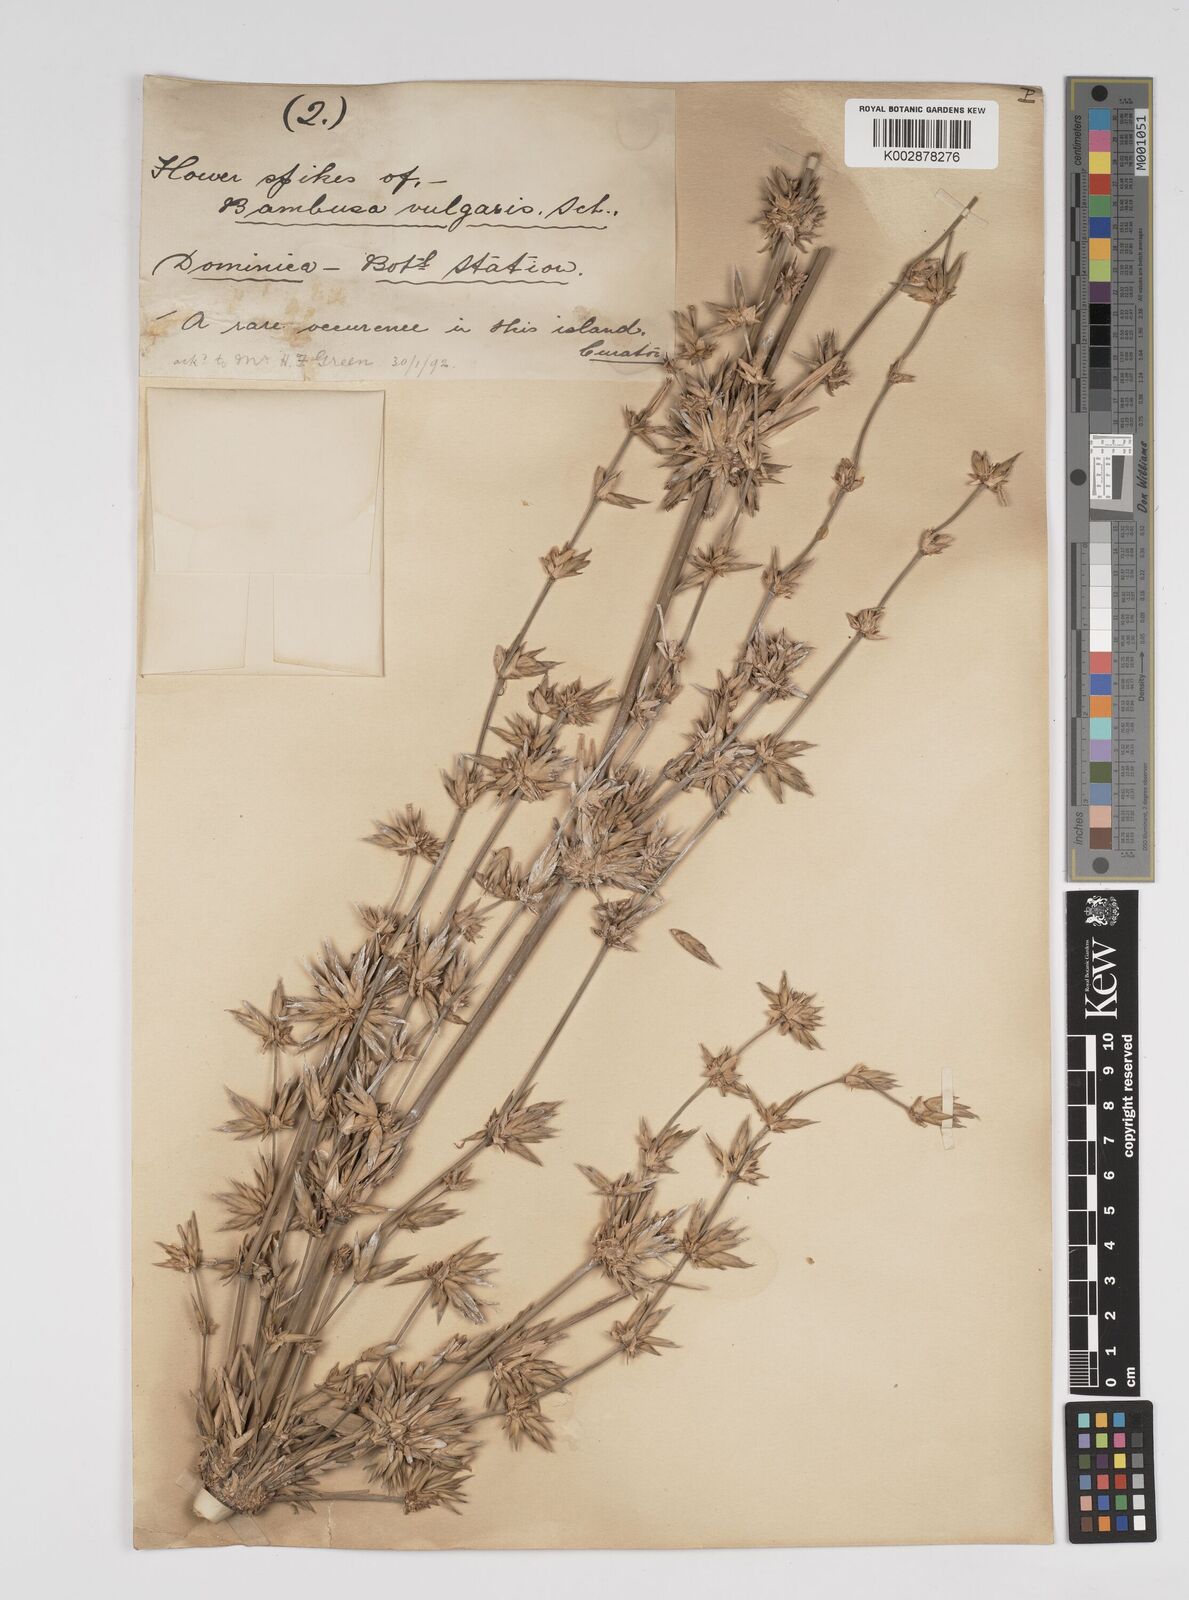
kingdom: Plantae
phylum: Tracheophyta
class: Liliopsida
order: Poales
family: Poaceae
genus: Bambusa
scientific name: Bambusa vulgaris
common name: Common bamboo
